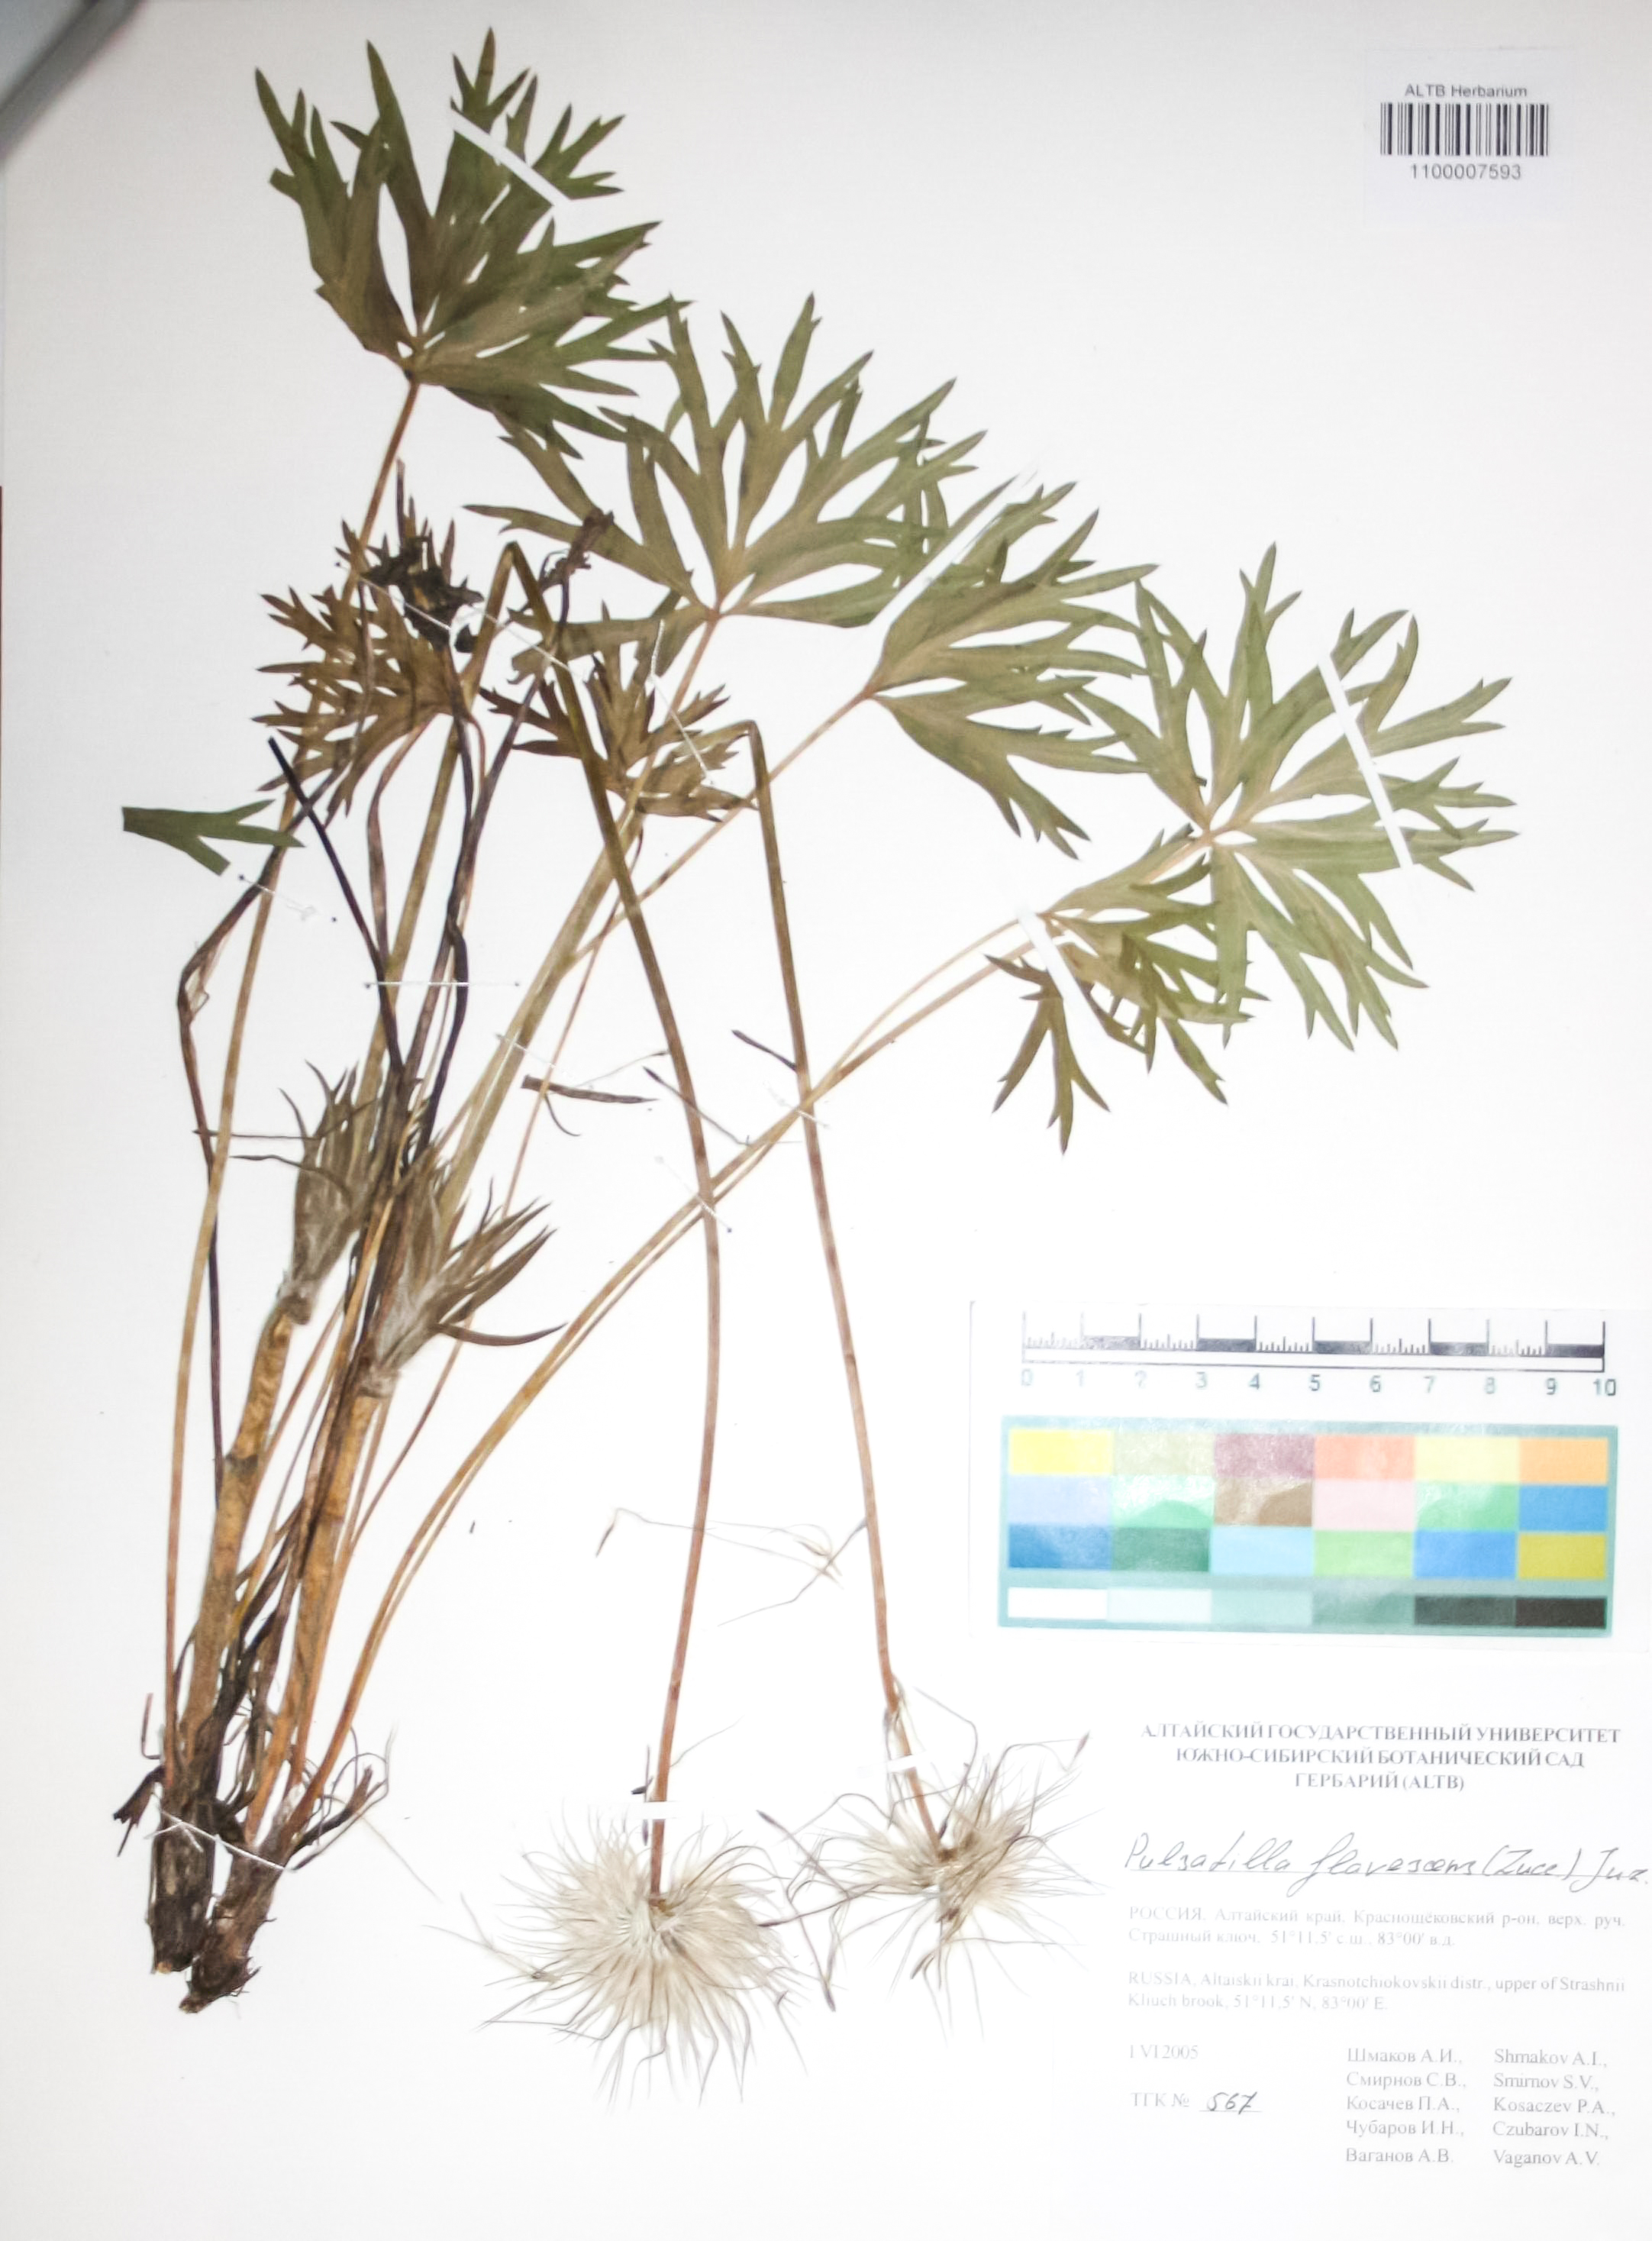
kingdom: Plantae
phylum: Tracheophyta
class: Magnoliopsida
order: Ranunculales
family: Ranunculaceae
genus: Pulsatilla
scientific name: Pulsatilla patens
